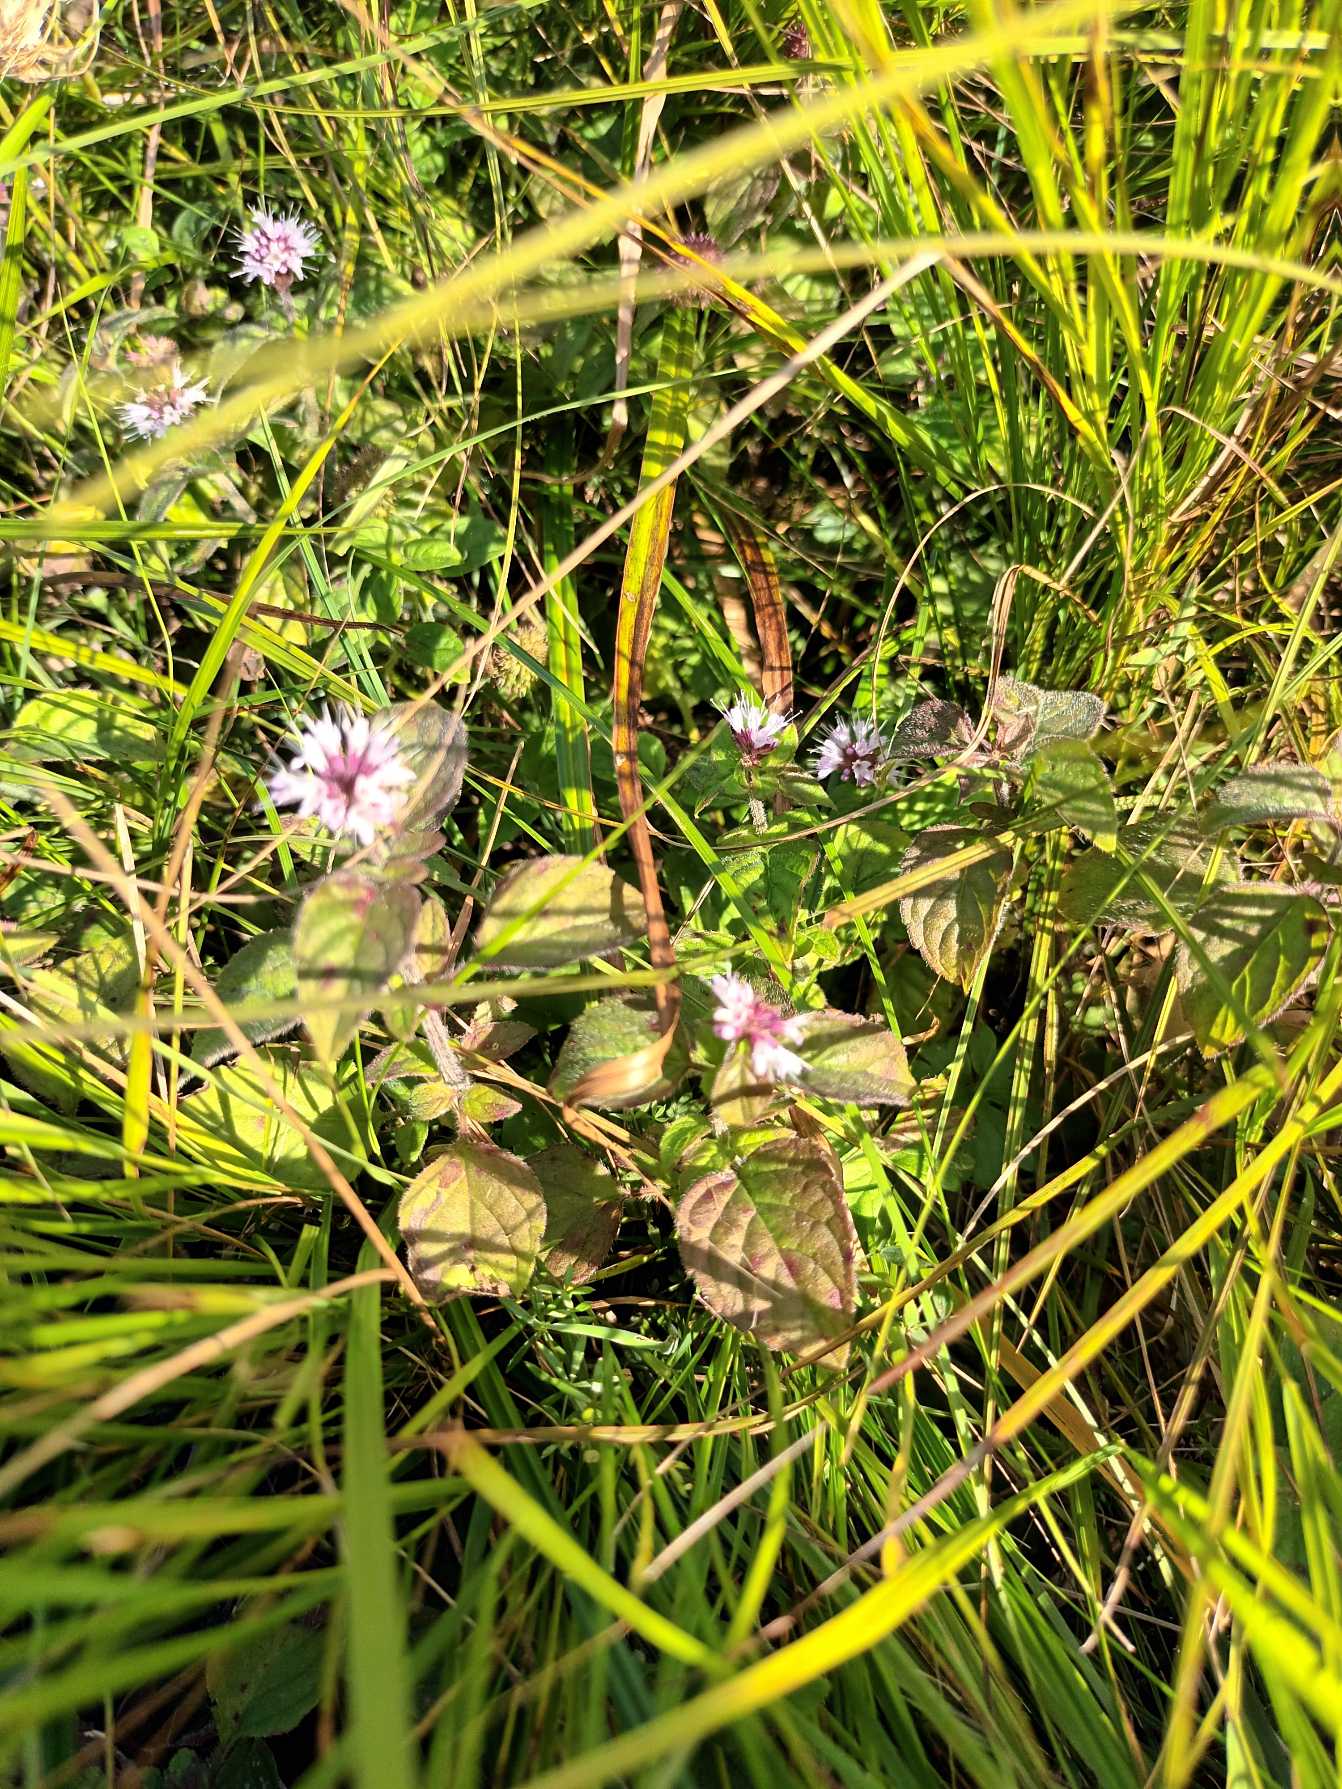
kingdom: Plantae
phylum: Tracheophyta
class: Magnoliopsida
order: Lamiales
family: Lamiaceae
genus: Mentha
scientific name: Mentha aquatica
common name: Vand-mynte
